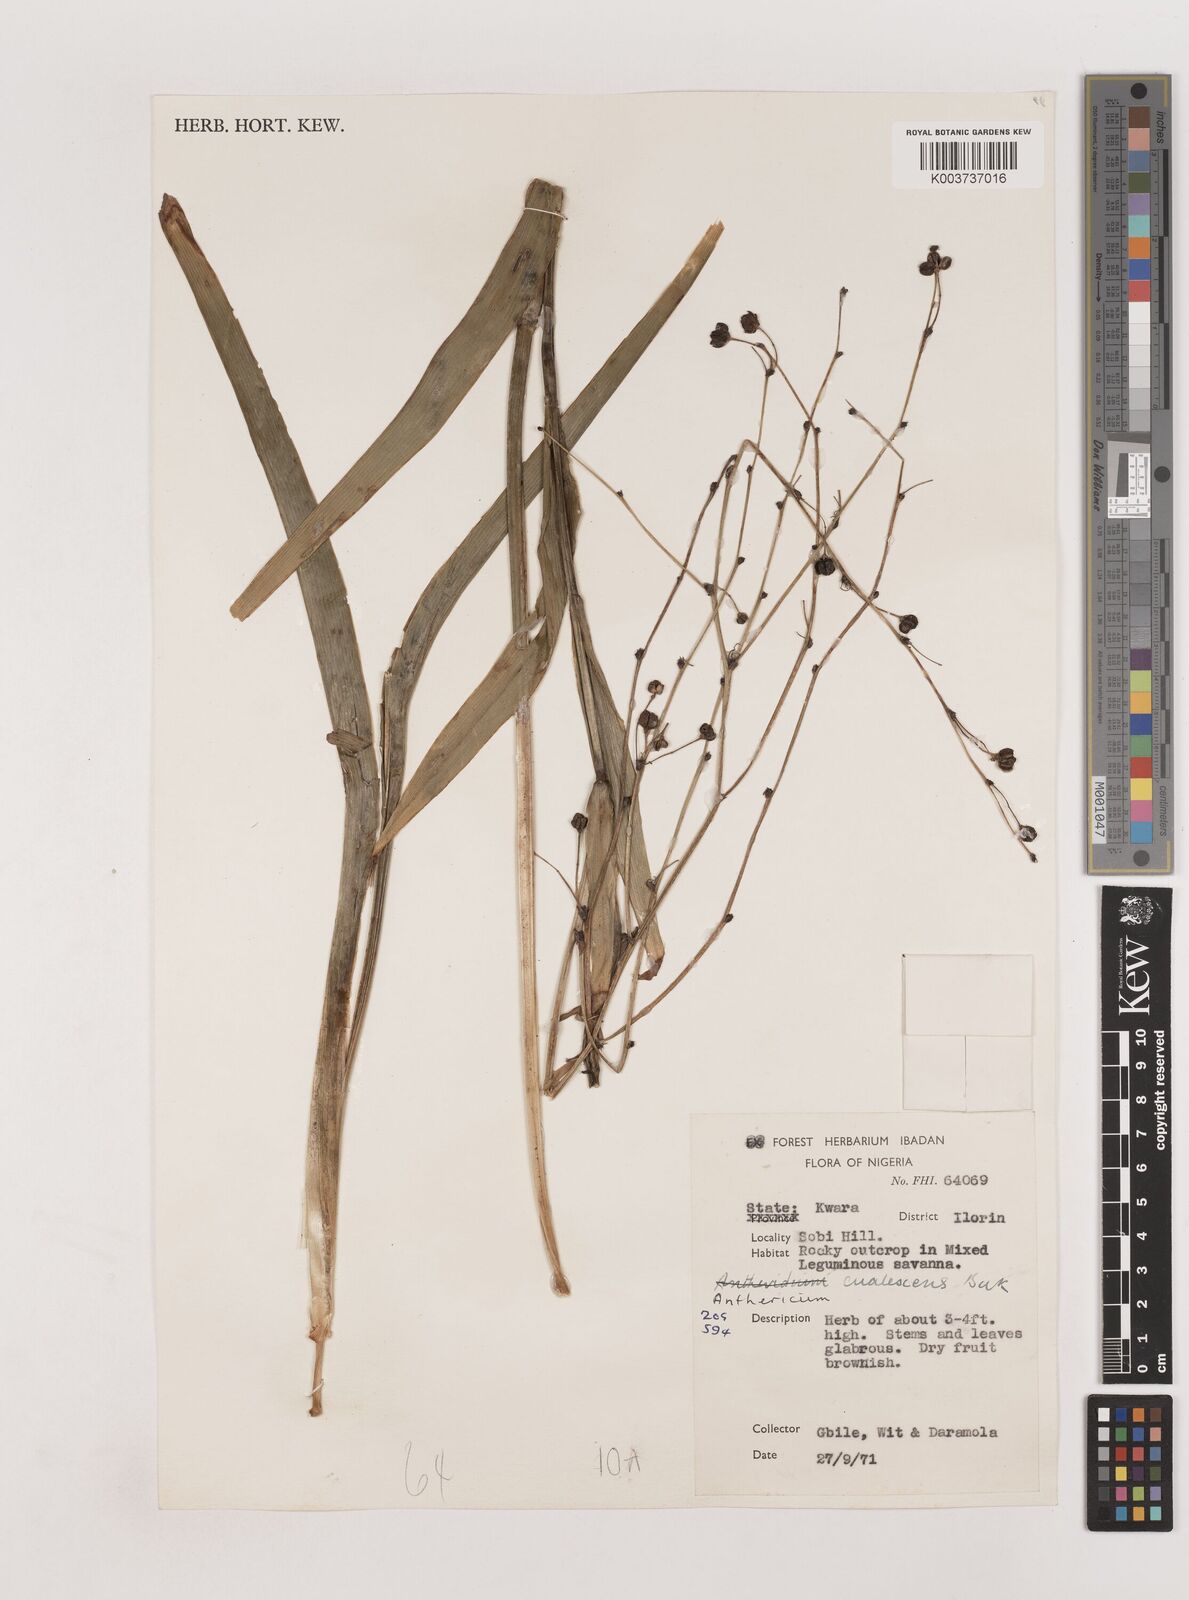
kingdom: Plantae
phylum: Tracheophyta
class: Liliopsida
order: Asparagales
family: Asparagaceae
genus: Chlorophytum
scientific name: Chlorophytum caulescens
